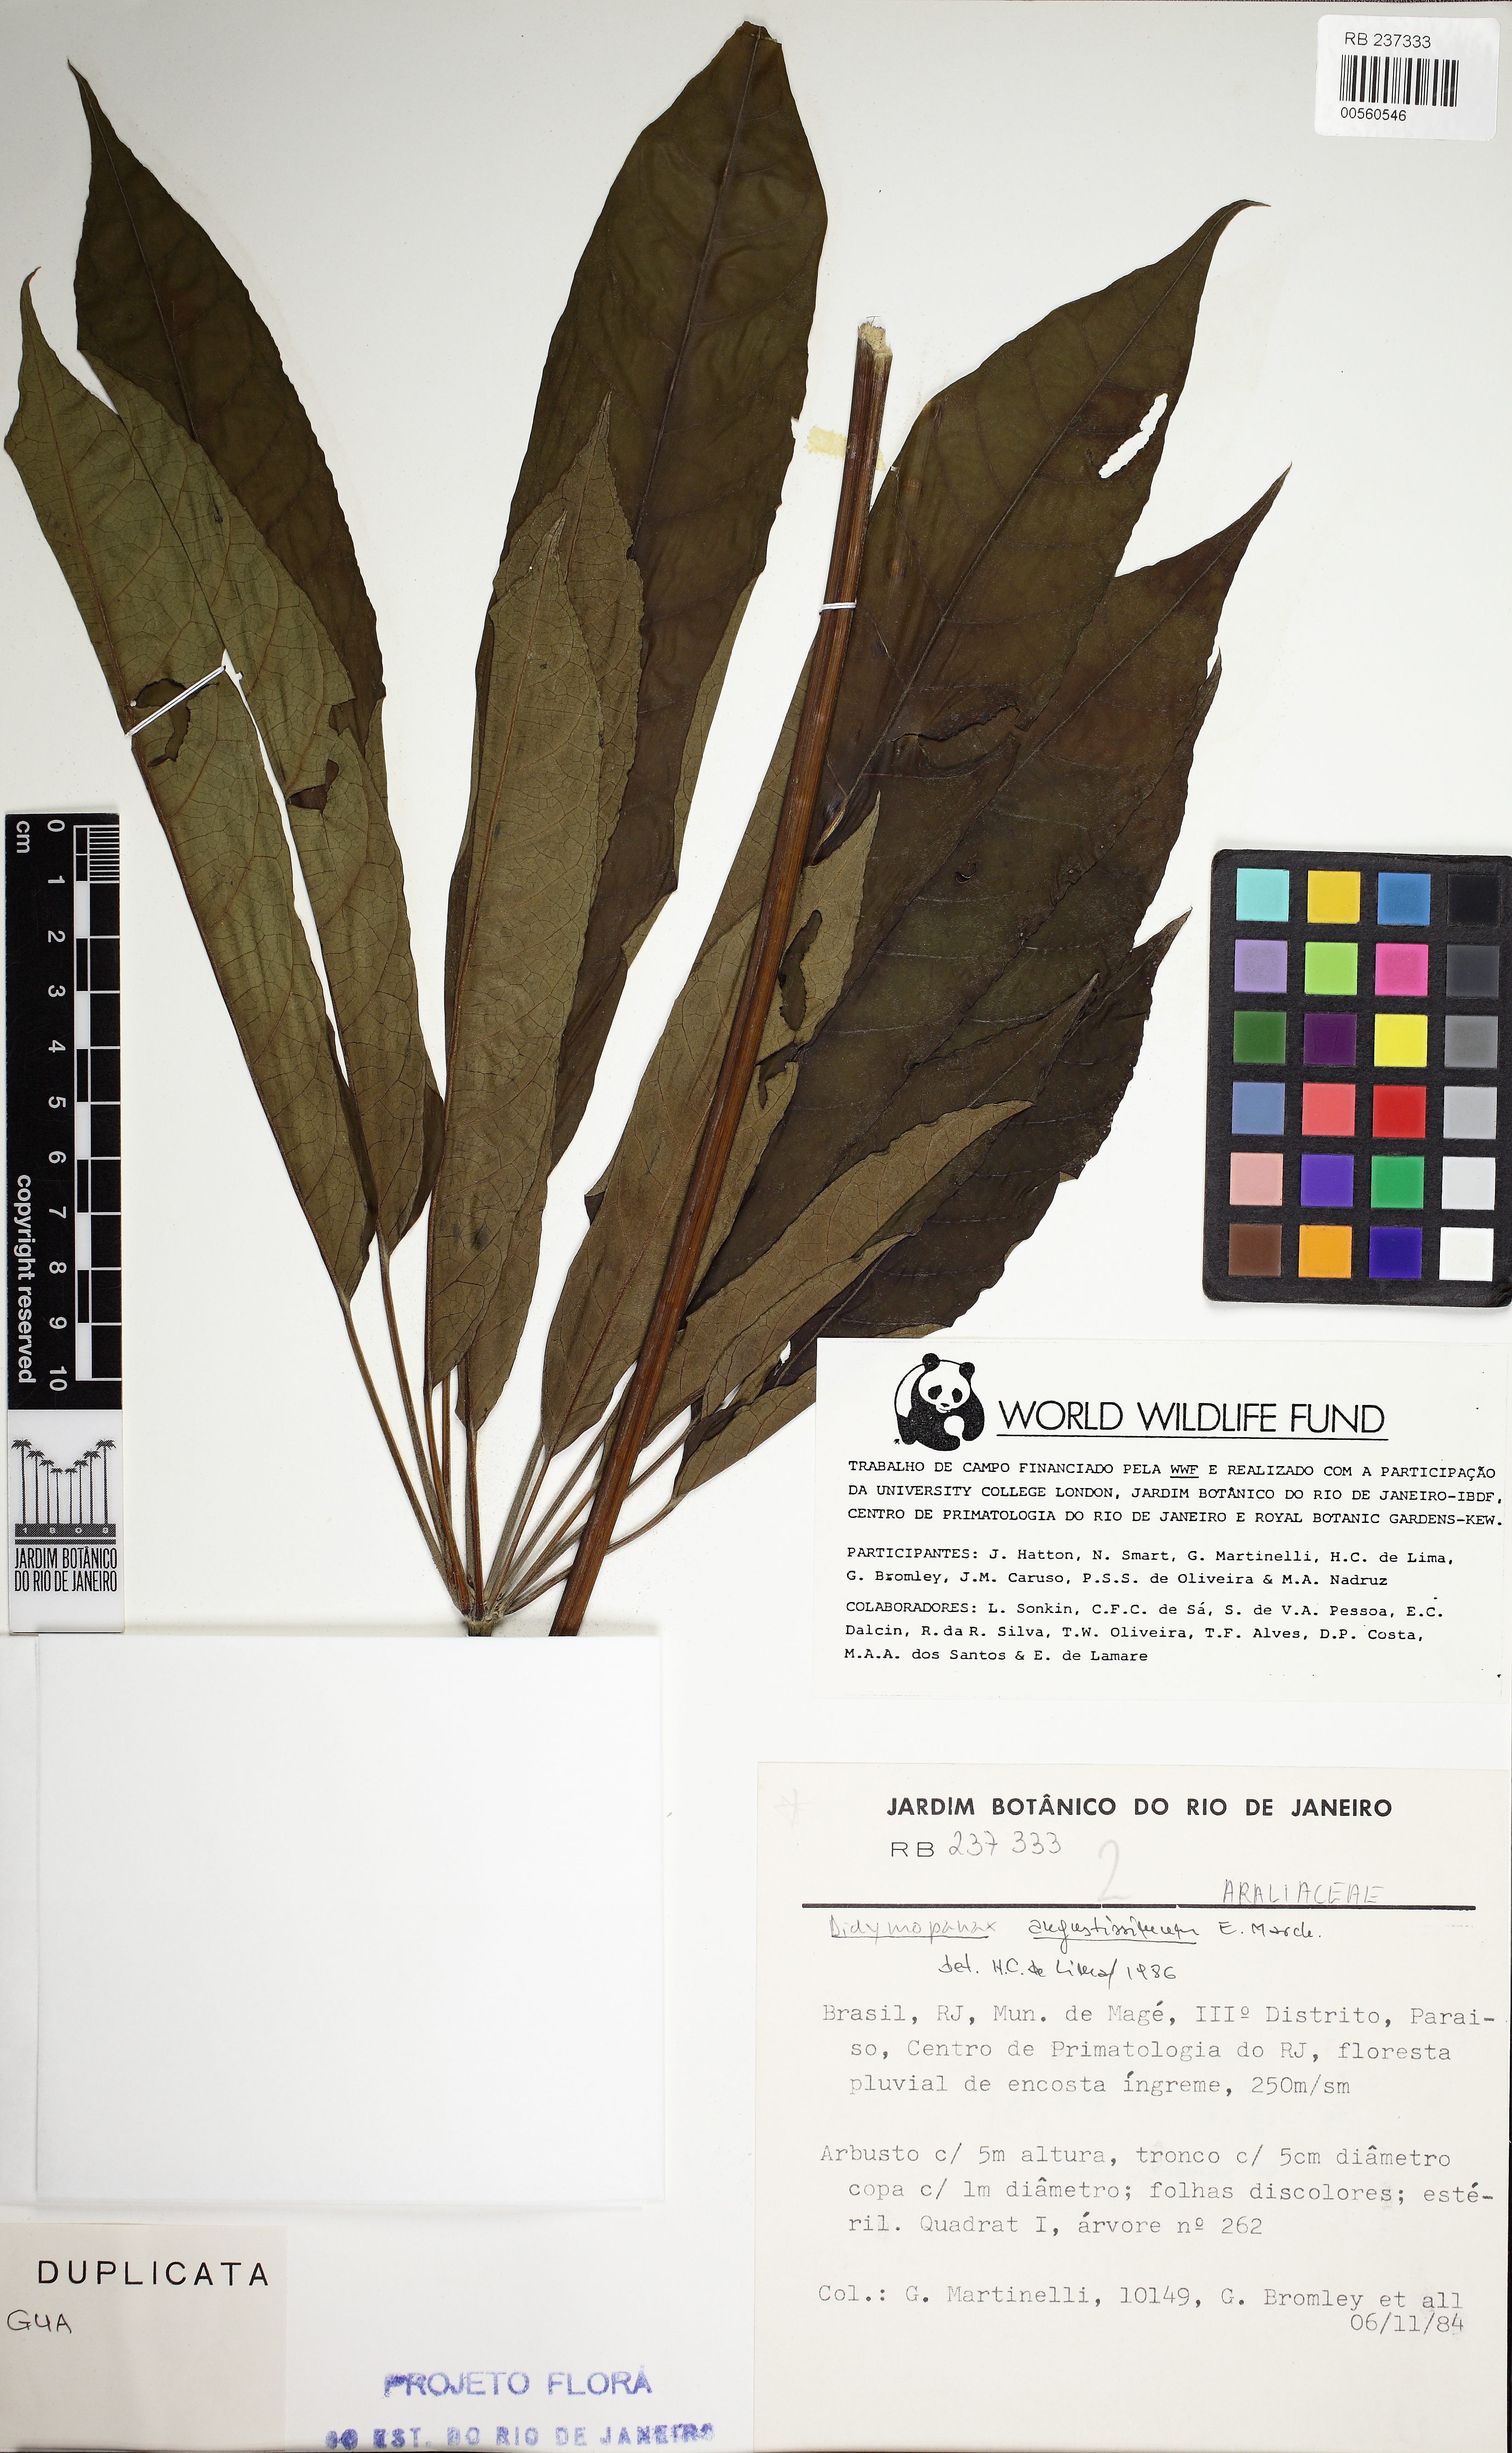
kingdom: Plantae
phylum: Tracheophyta
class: Magnoliopsida
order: Apiales
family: Araliaceae
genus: Didymopanax
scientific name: Didymopanax angustissimus
